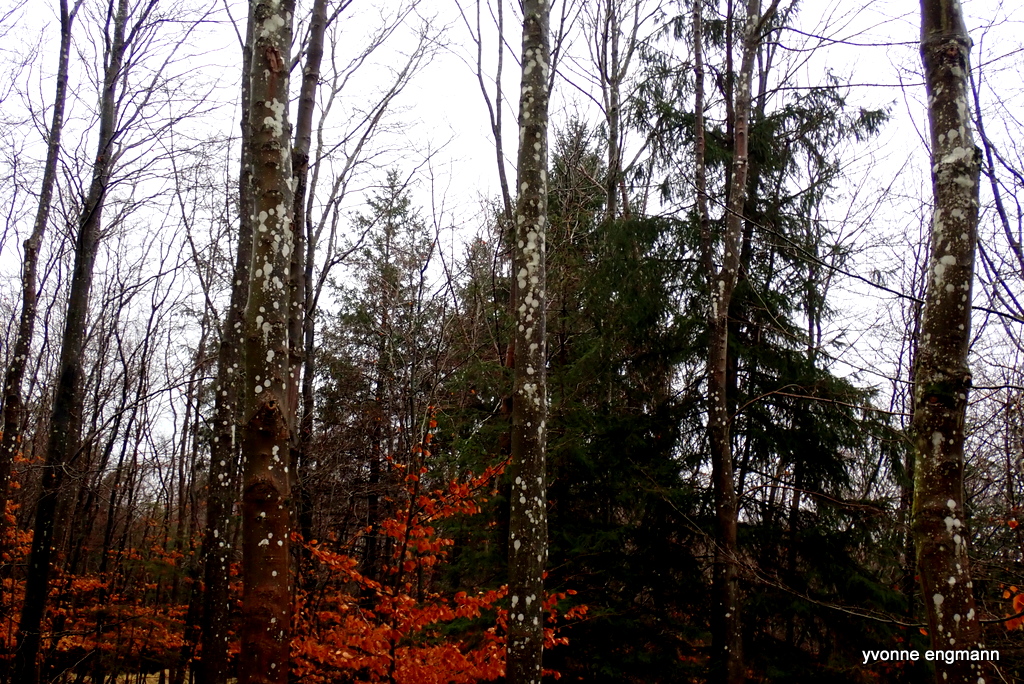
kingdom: Fungi
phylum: Ascomycota
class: Lecanoromycetes
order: Ostropales
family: Phlyctidaceae
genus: Phlyctis
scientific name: Phlyctis argena
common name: almindelig sølvlav
